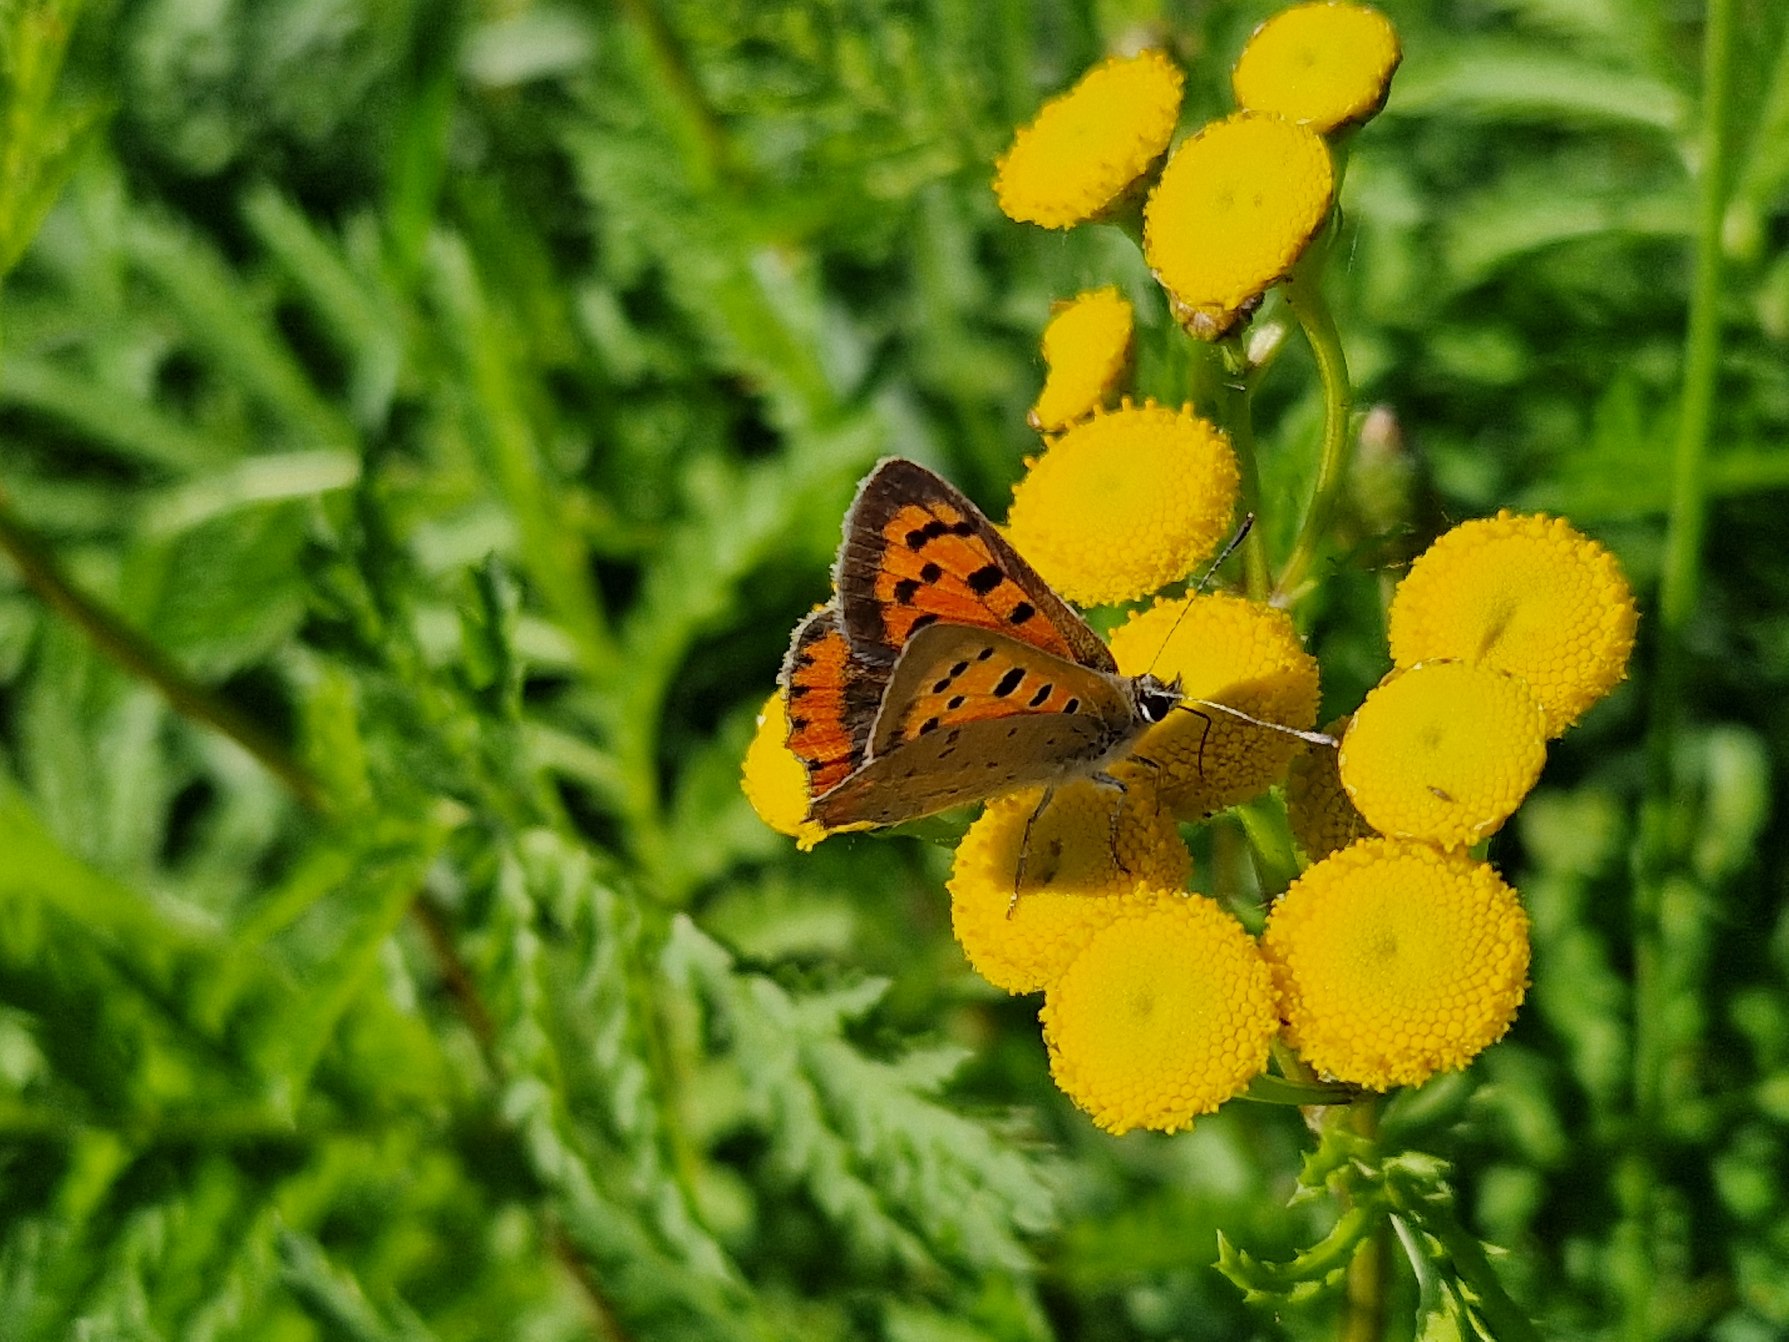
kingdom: Animalia
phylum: Arthropoda
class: Insecta
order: Lepidoptera
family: Lycaenidae
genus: Lycaena
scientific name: Lycaena phlaeas
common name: Lille ildfugl
